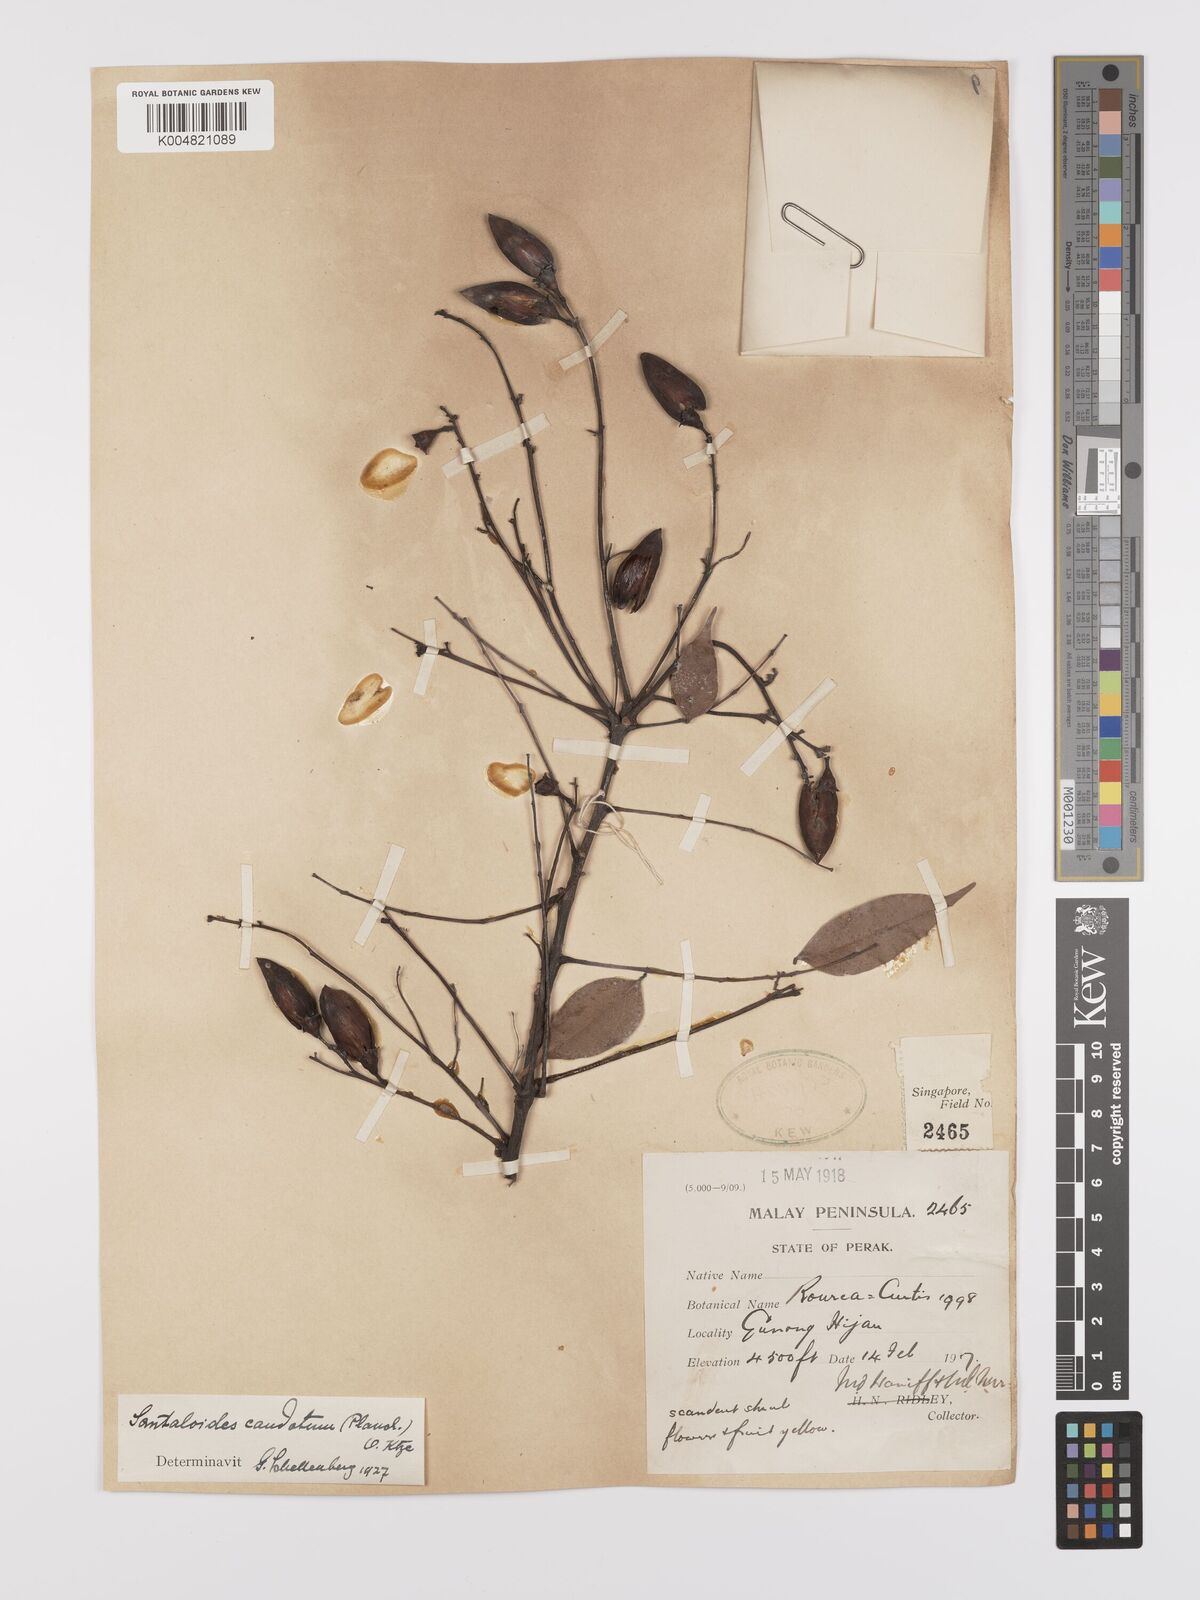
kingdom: Plantae
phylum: Tracheophyta
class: Magnoliopsida
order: Oxalidales
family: Connaraceae
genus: Rourea
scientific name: Rourea minor
